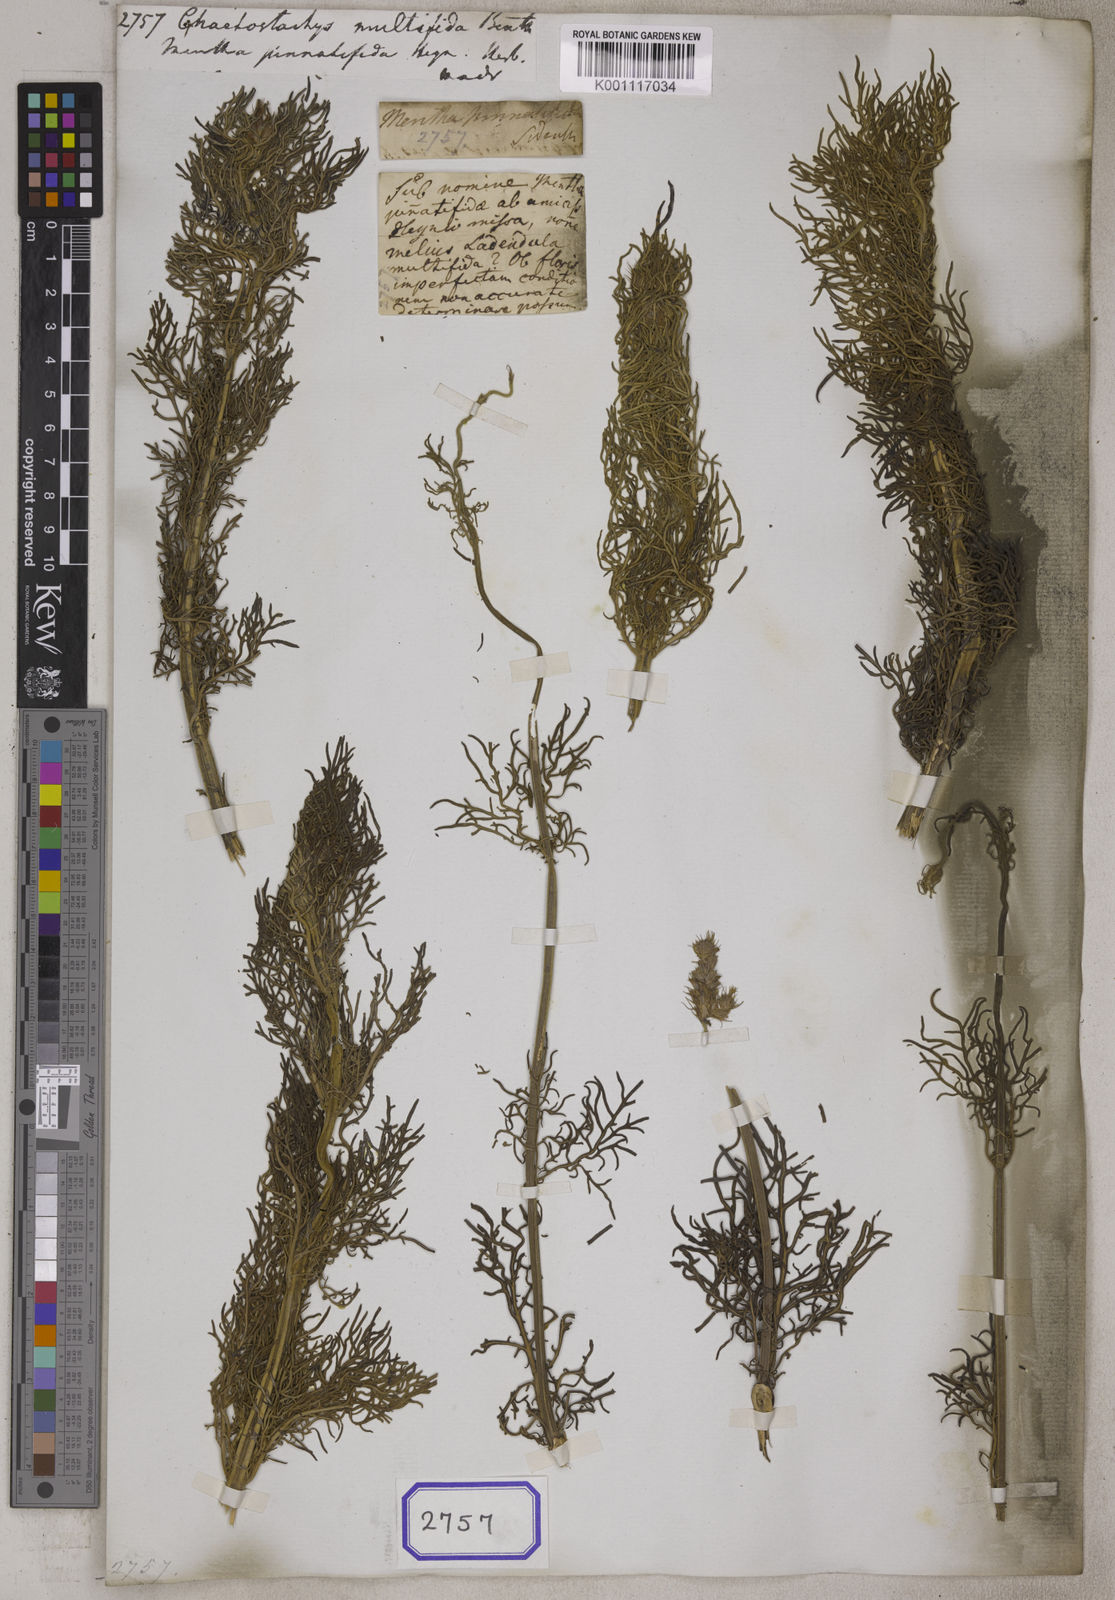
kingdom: Plantae
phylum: Tracheophyta
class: Magnoliopsida
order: Lamiales
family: Lamiaceae
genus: Lavandula
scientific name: Lavandula bipinnata
